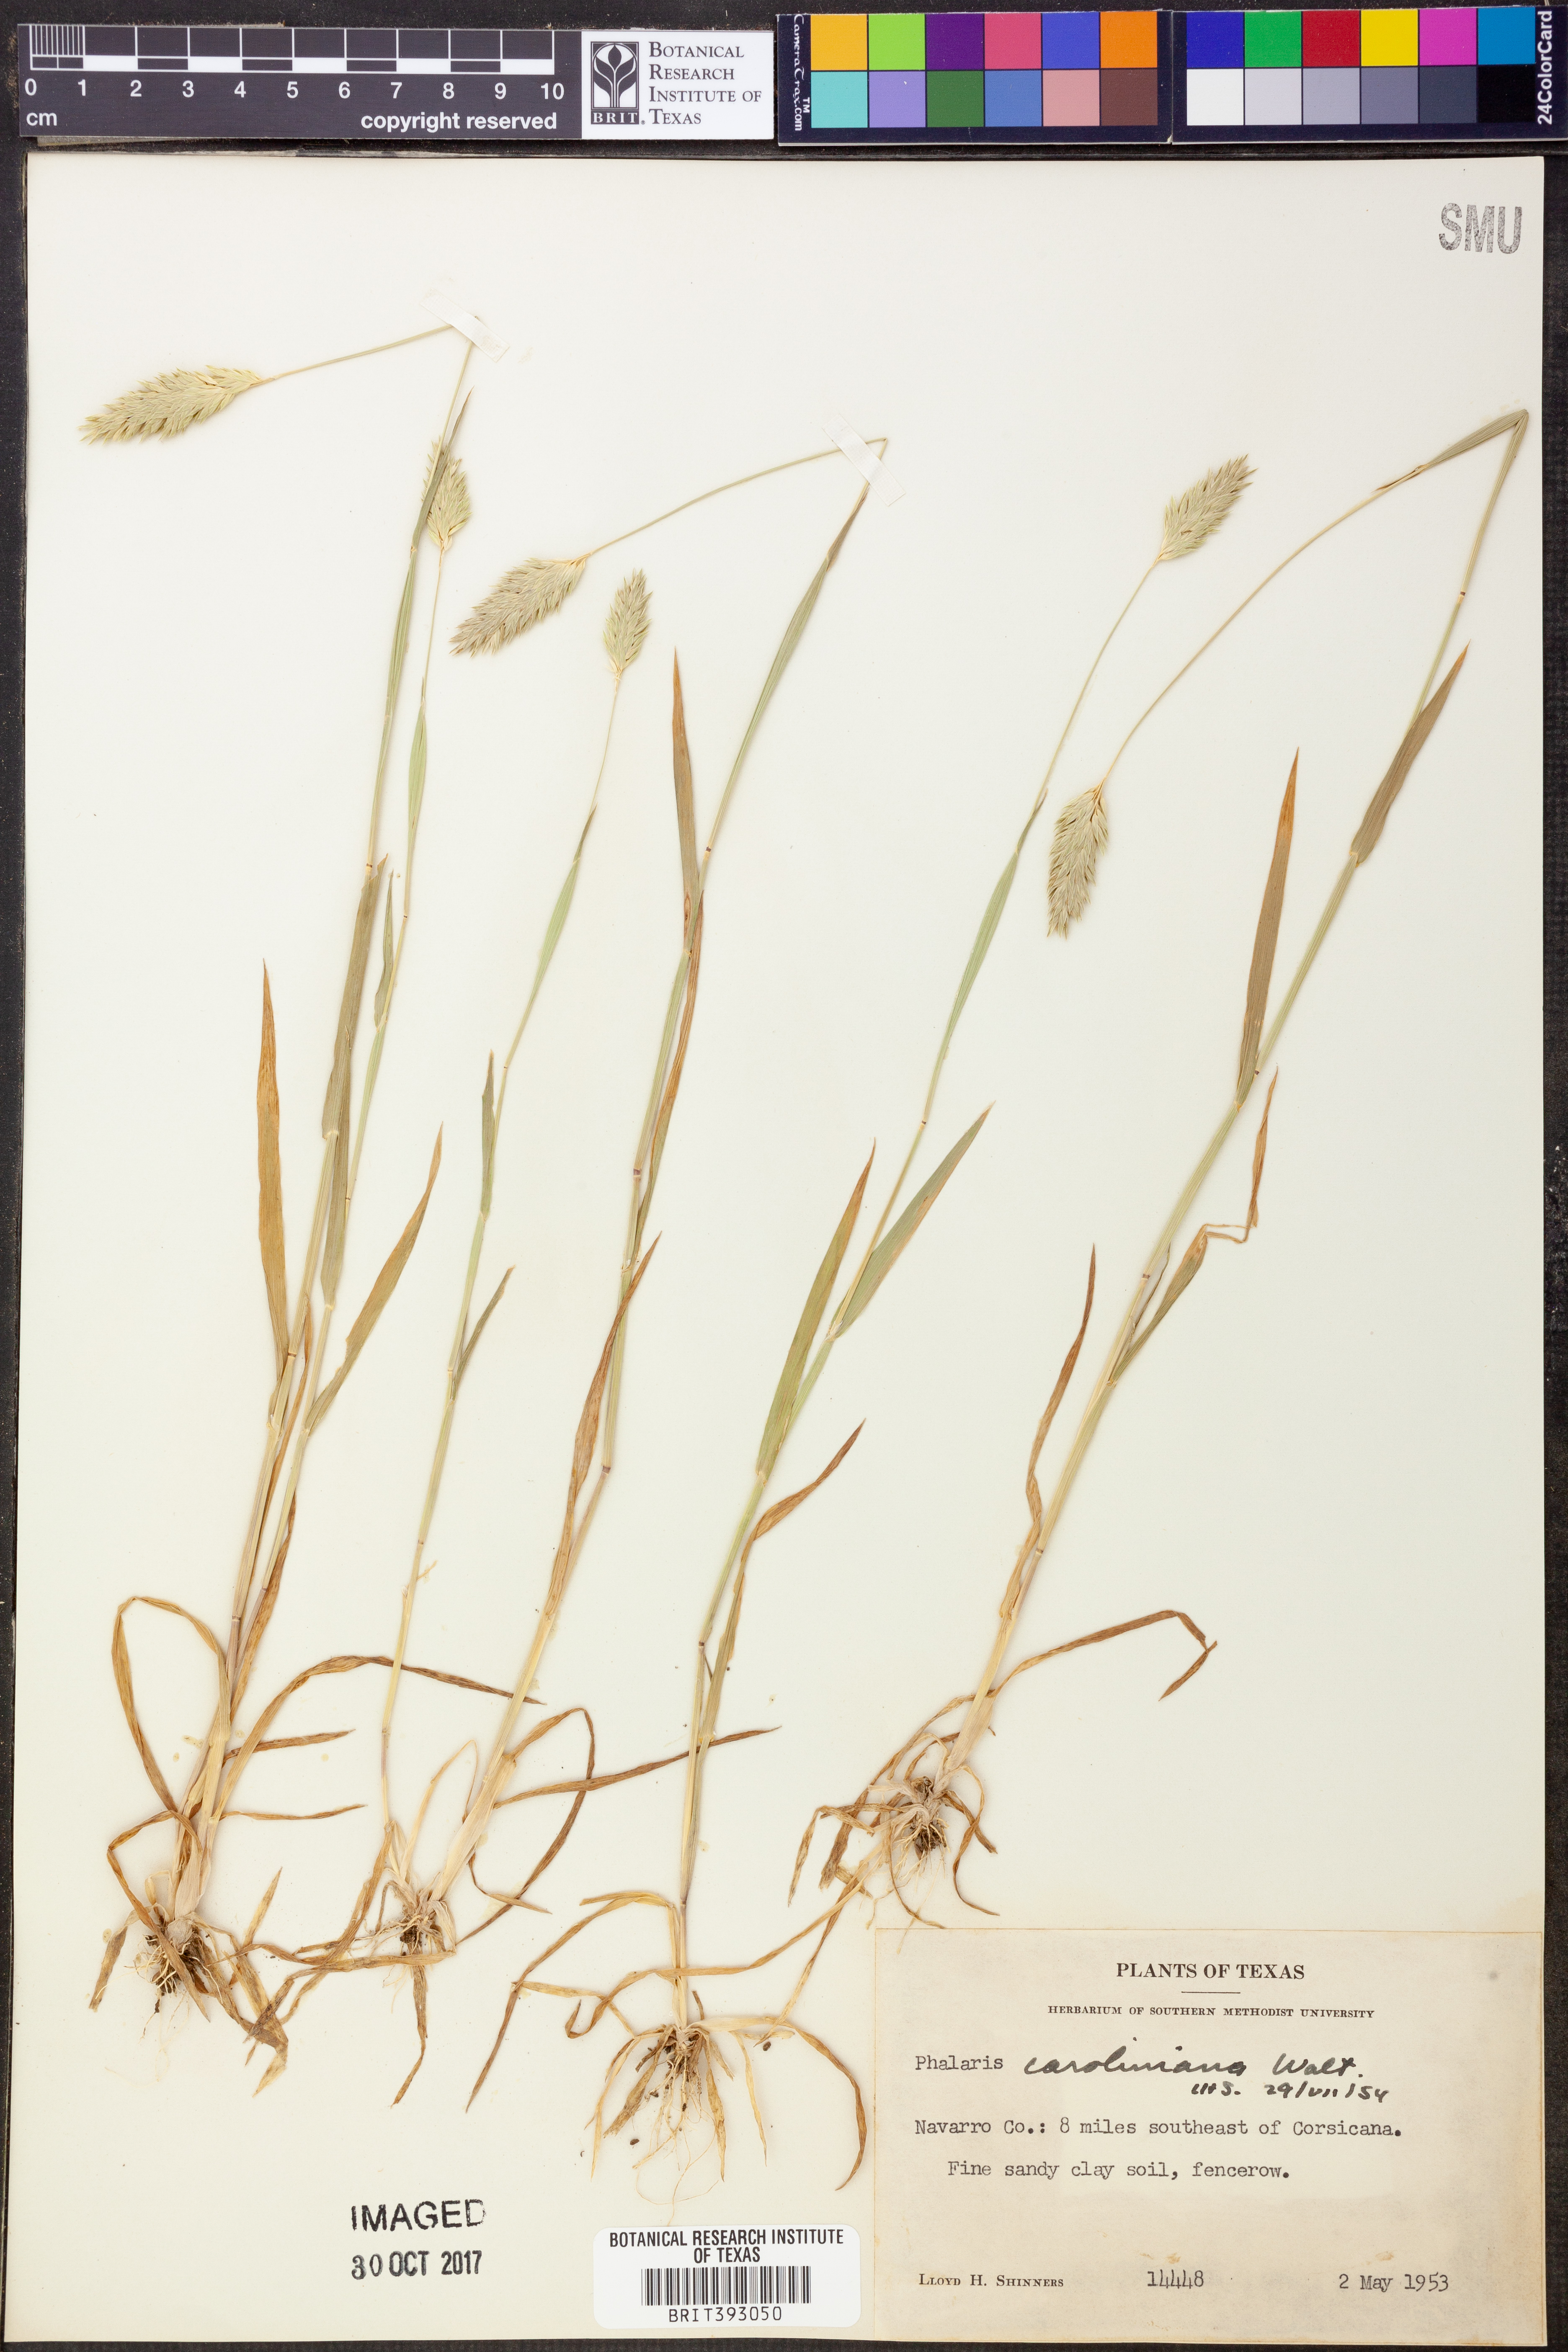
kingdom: Plantae
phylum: Tracheophyta
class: Liliopsida
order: Poales
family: Poaceae
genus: Phalaris
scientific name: Phalaris caroliniana
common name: May grass
